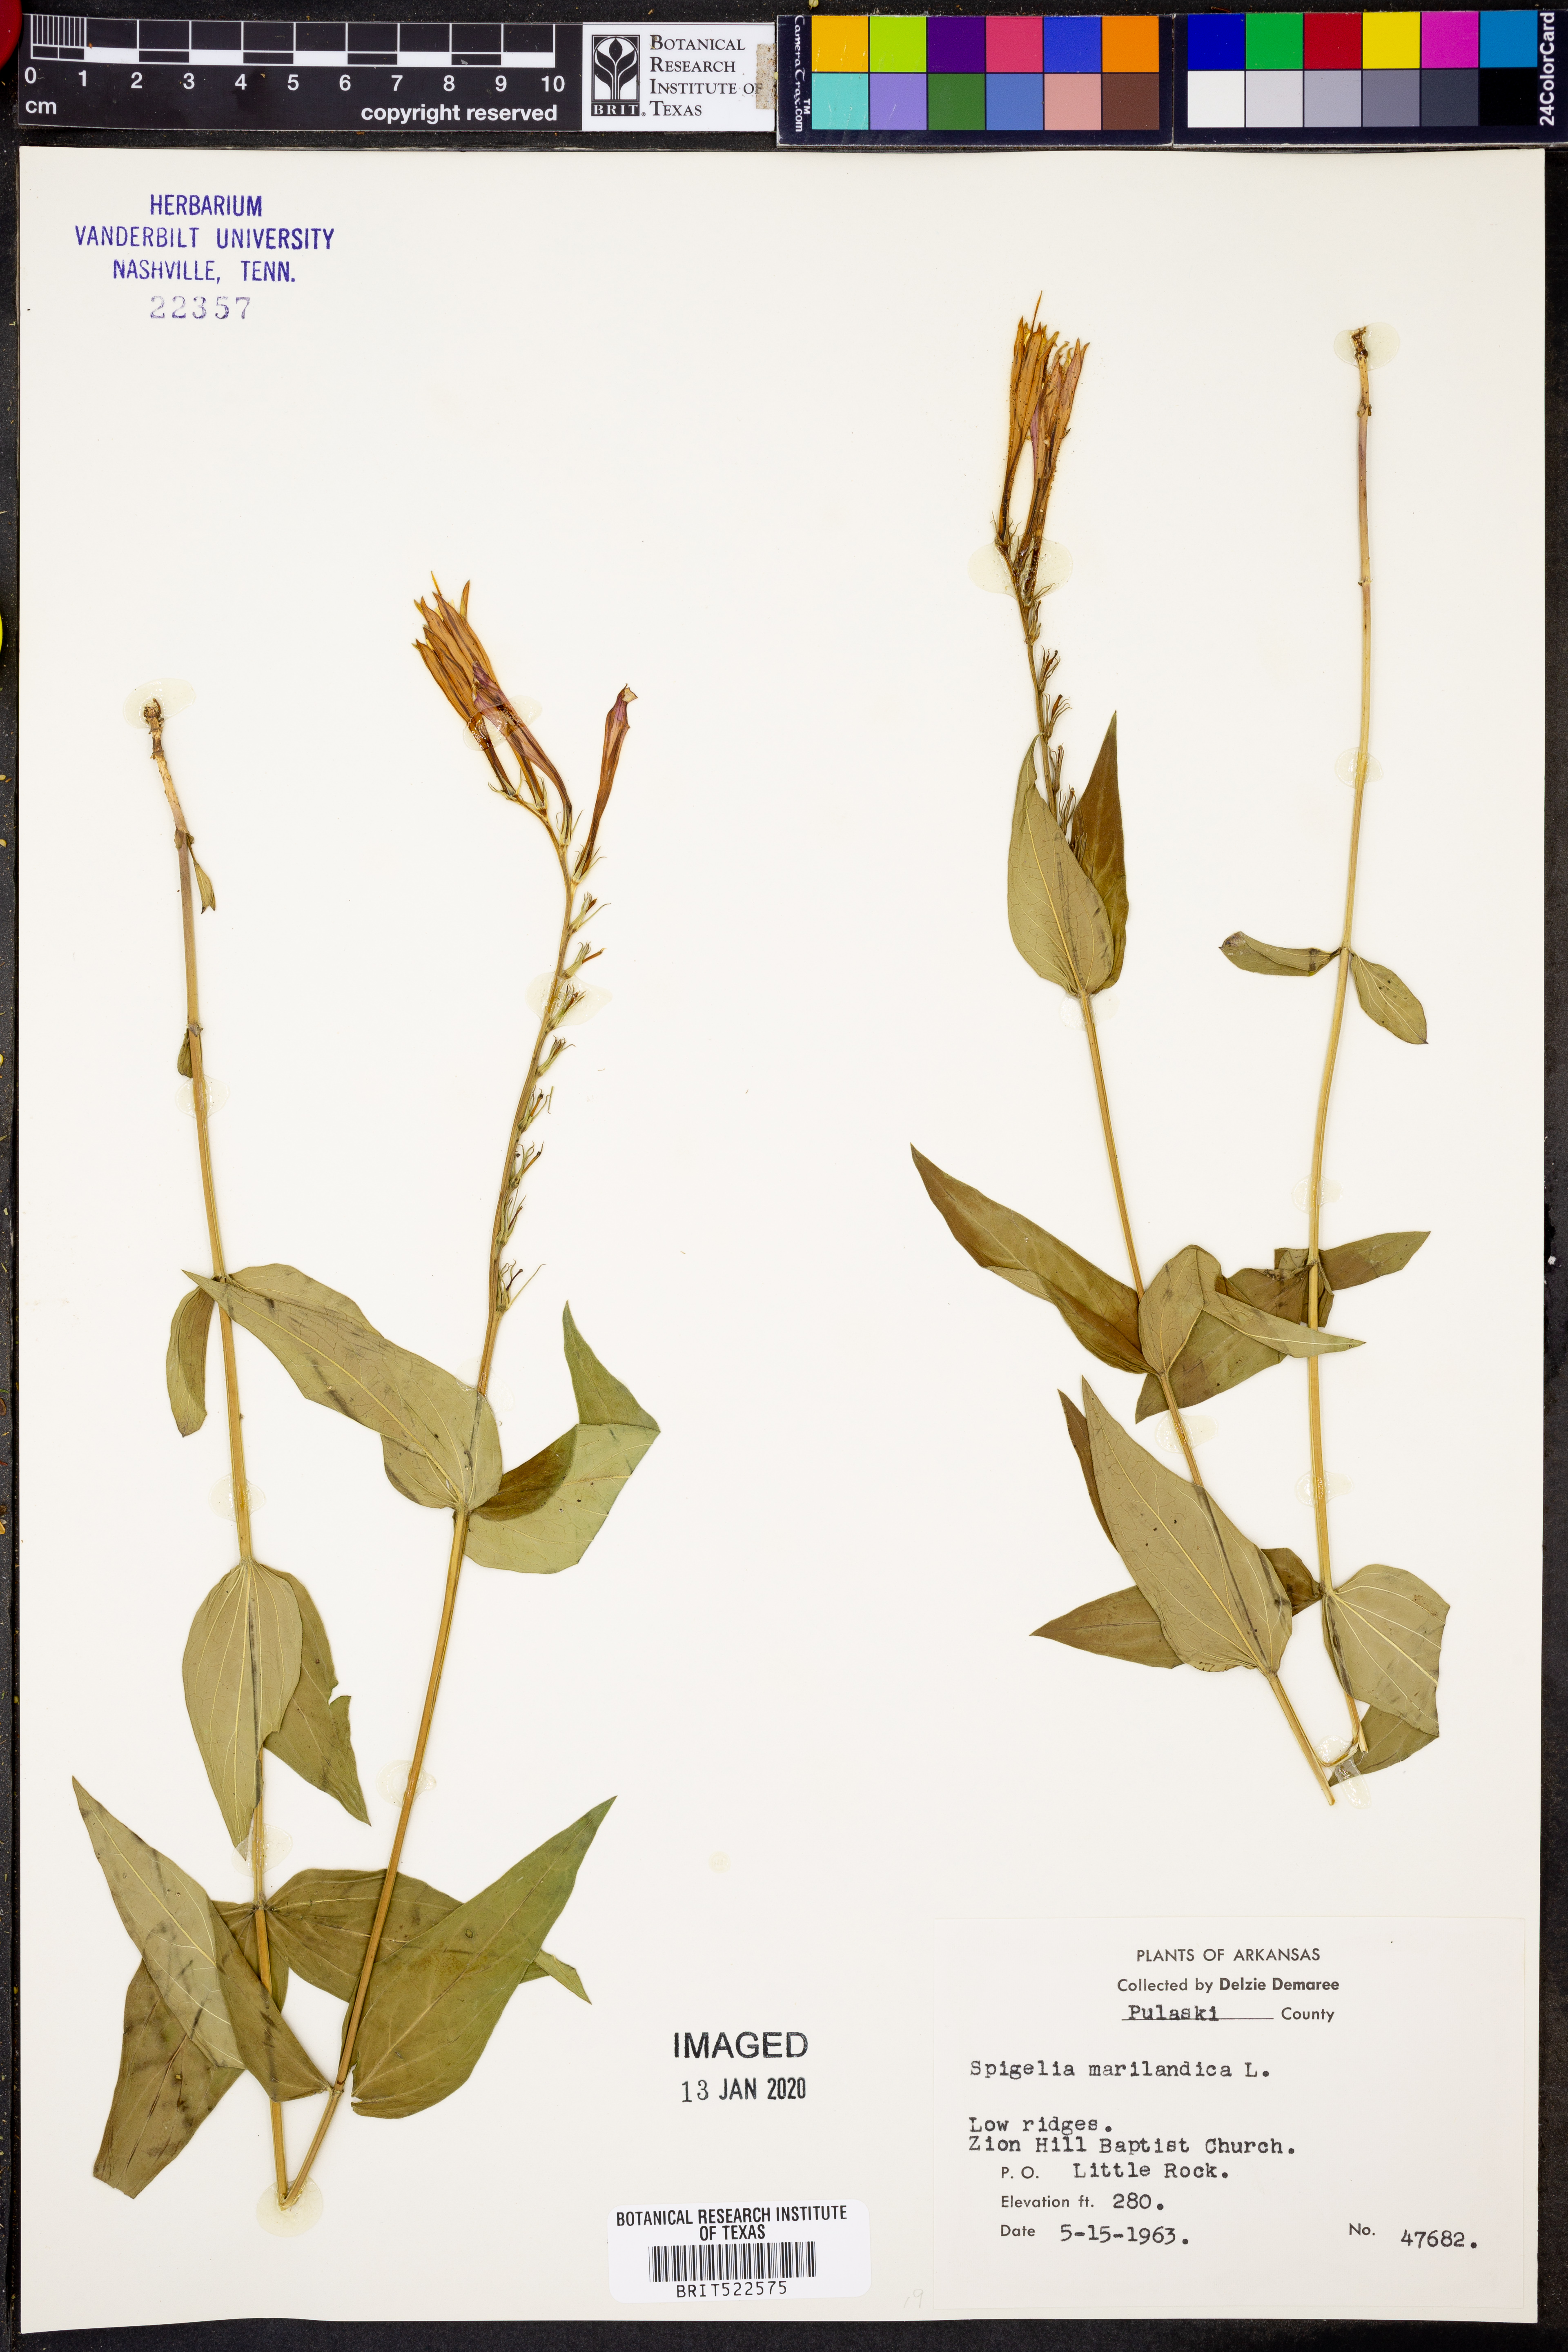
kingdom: Plantae
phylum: Tracheophyta
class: Magnoliopsida
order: Gentianales
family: Loganiaceae
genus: Spigelia
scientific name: Spigelia marilandica
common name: Indian-pink
